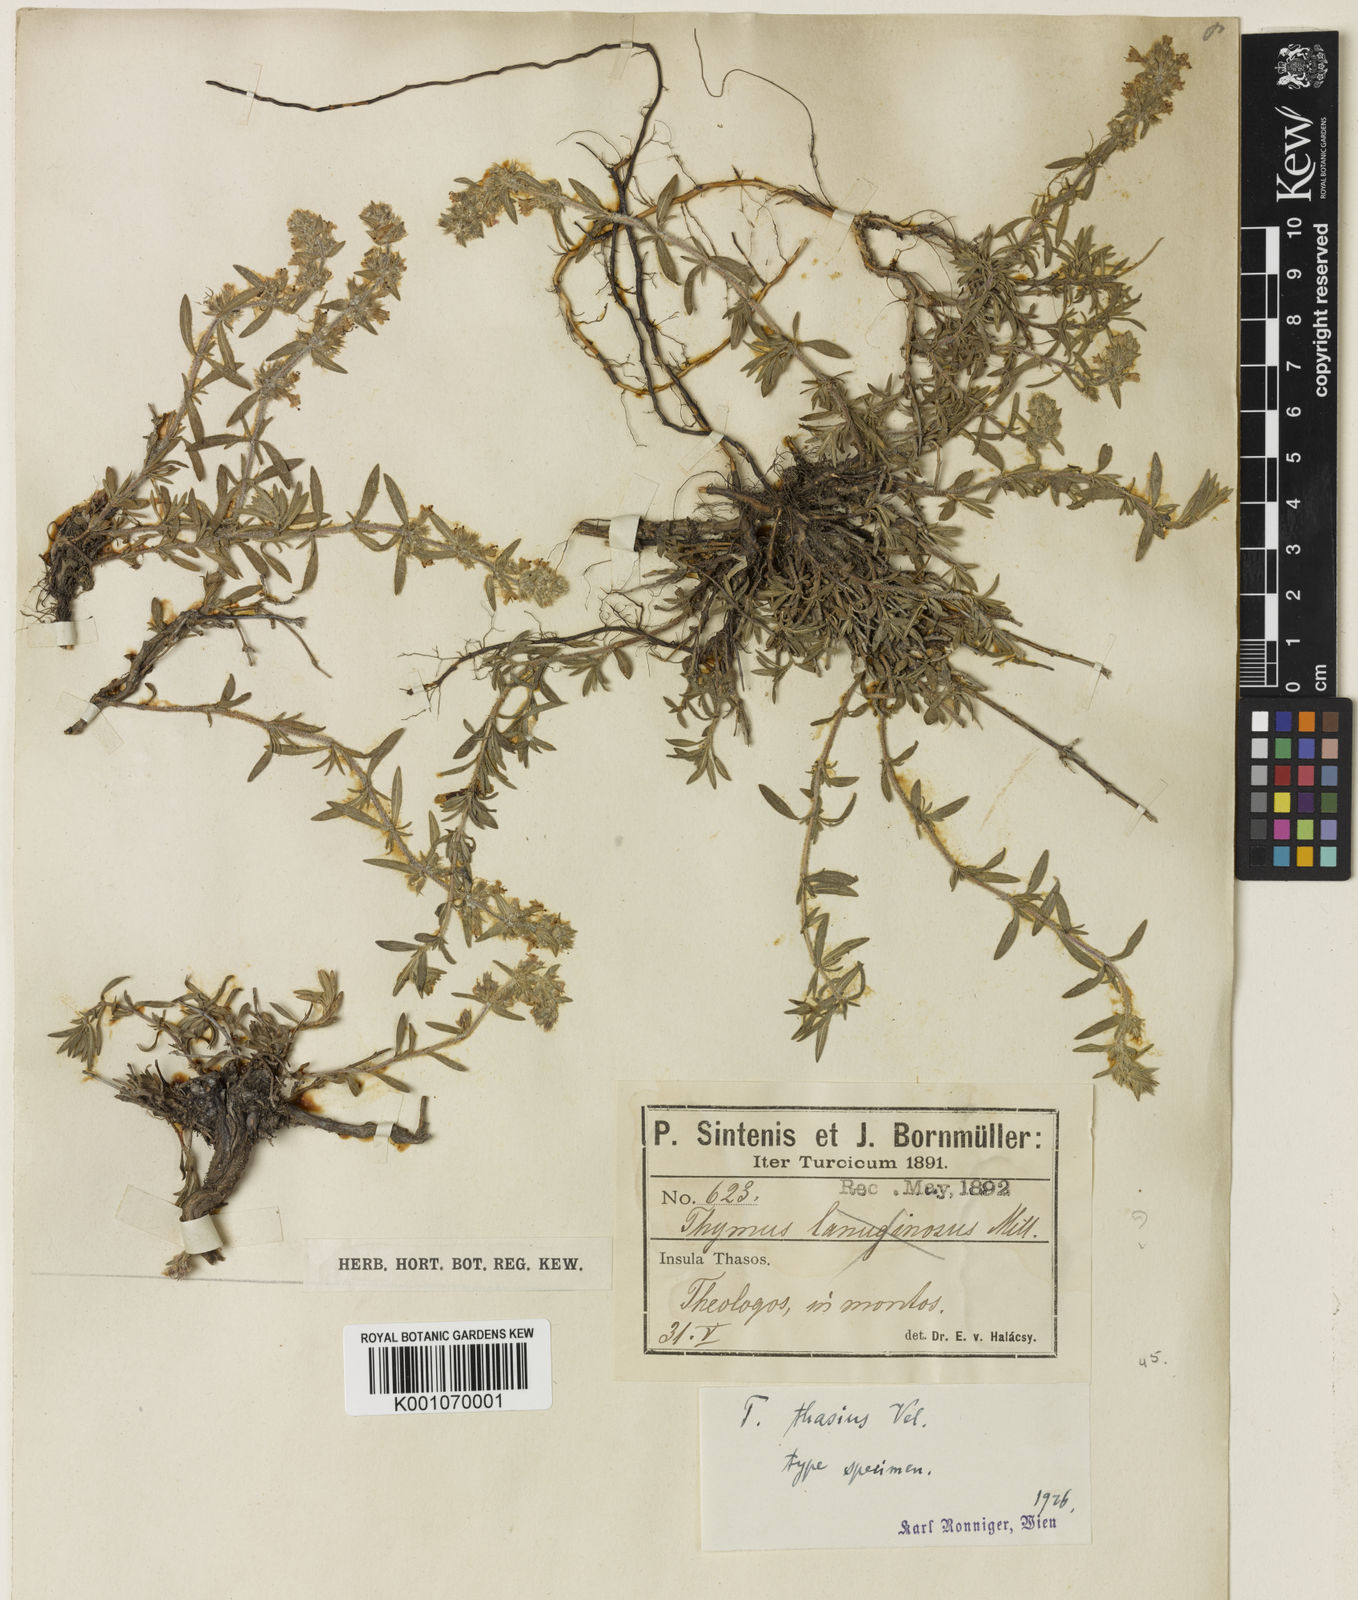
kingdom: Plantae
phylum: Tracheophyta
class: Magnoliopsida
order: Lamiales
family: Lamiaceae
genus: Thymus
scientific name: Thymus comptus
